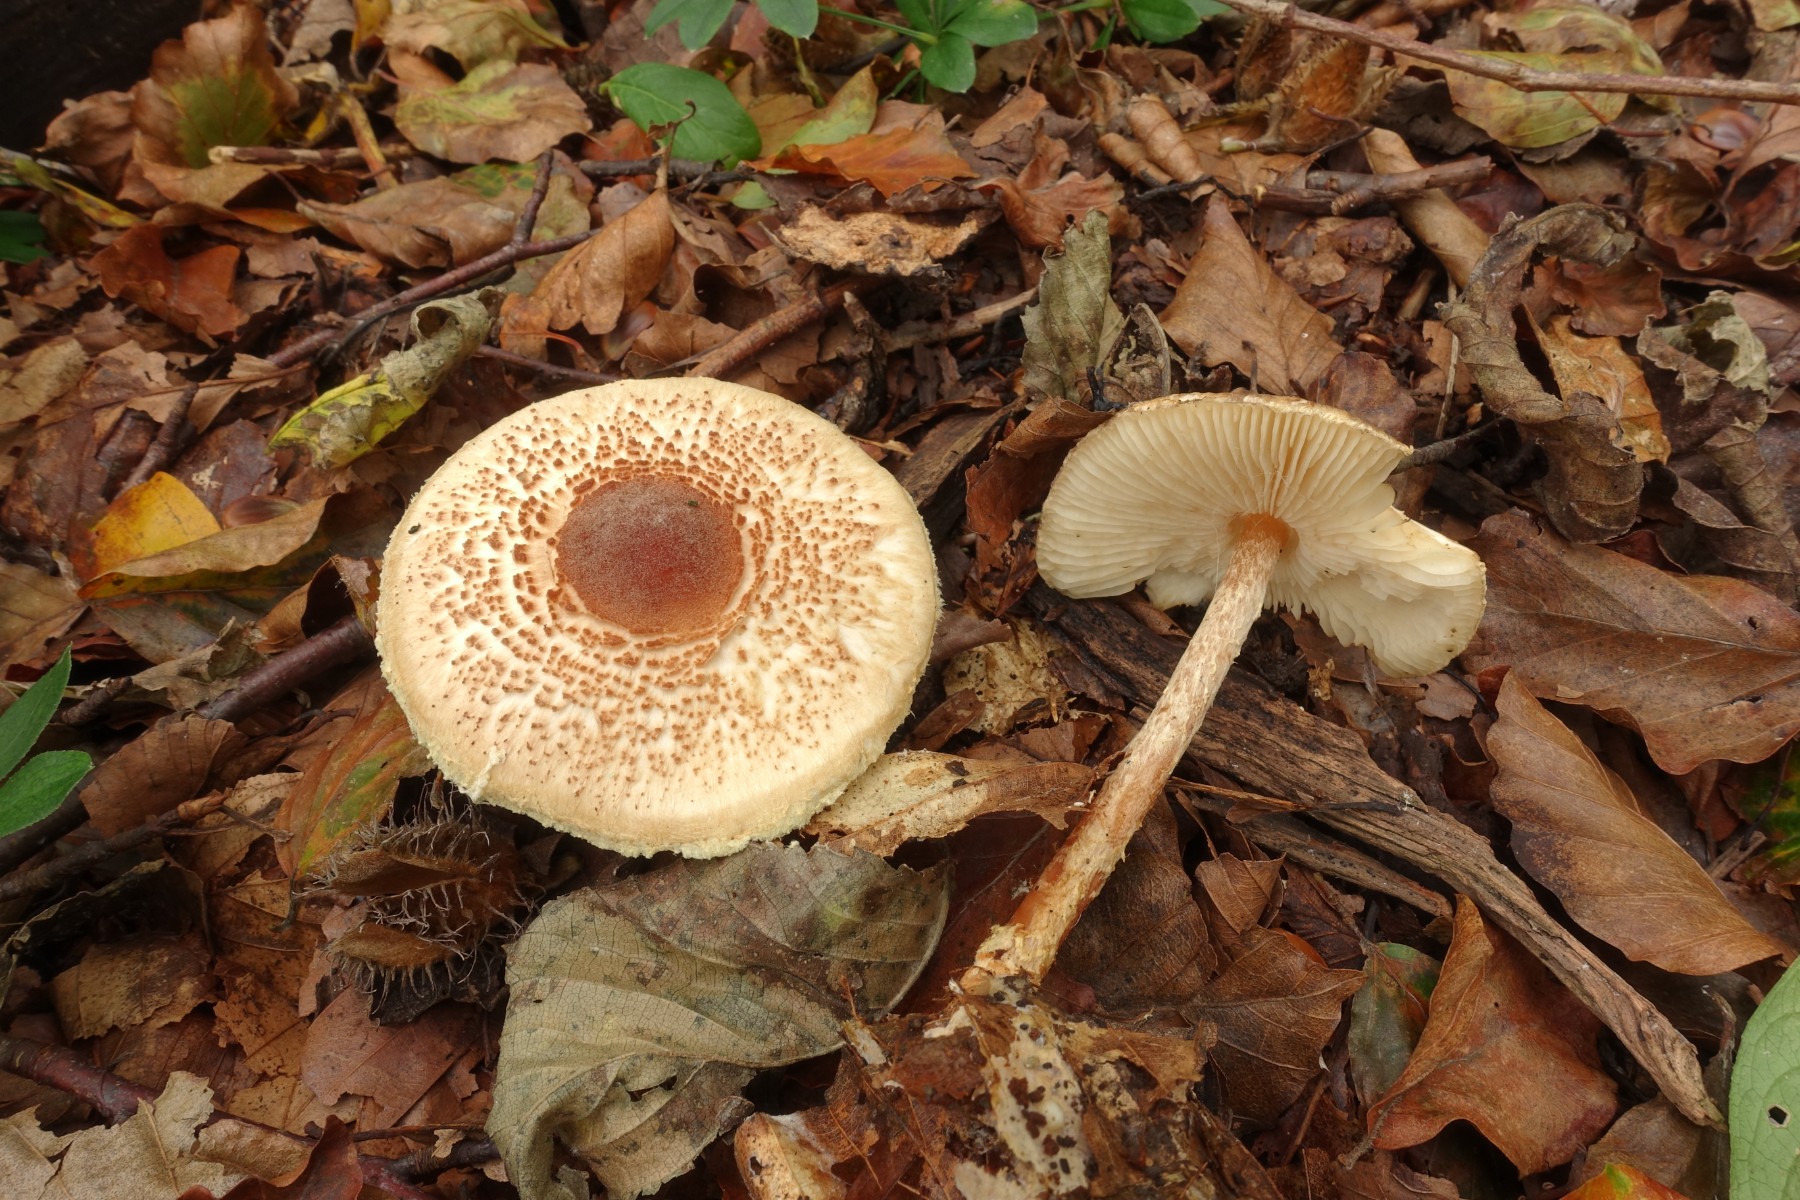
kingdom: Fungi
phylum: Basidiomycota
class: Agaricomycetes
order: Agaricales
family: Agaricaceae
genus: Lepiota
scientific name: Lepiota magnispora
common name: gulfnugget parasolhat
